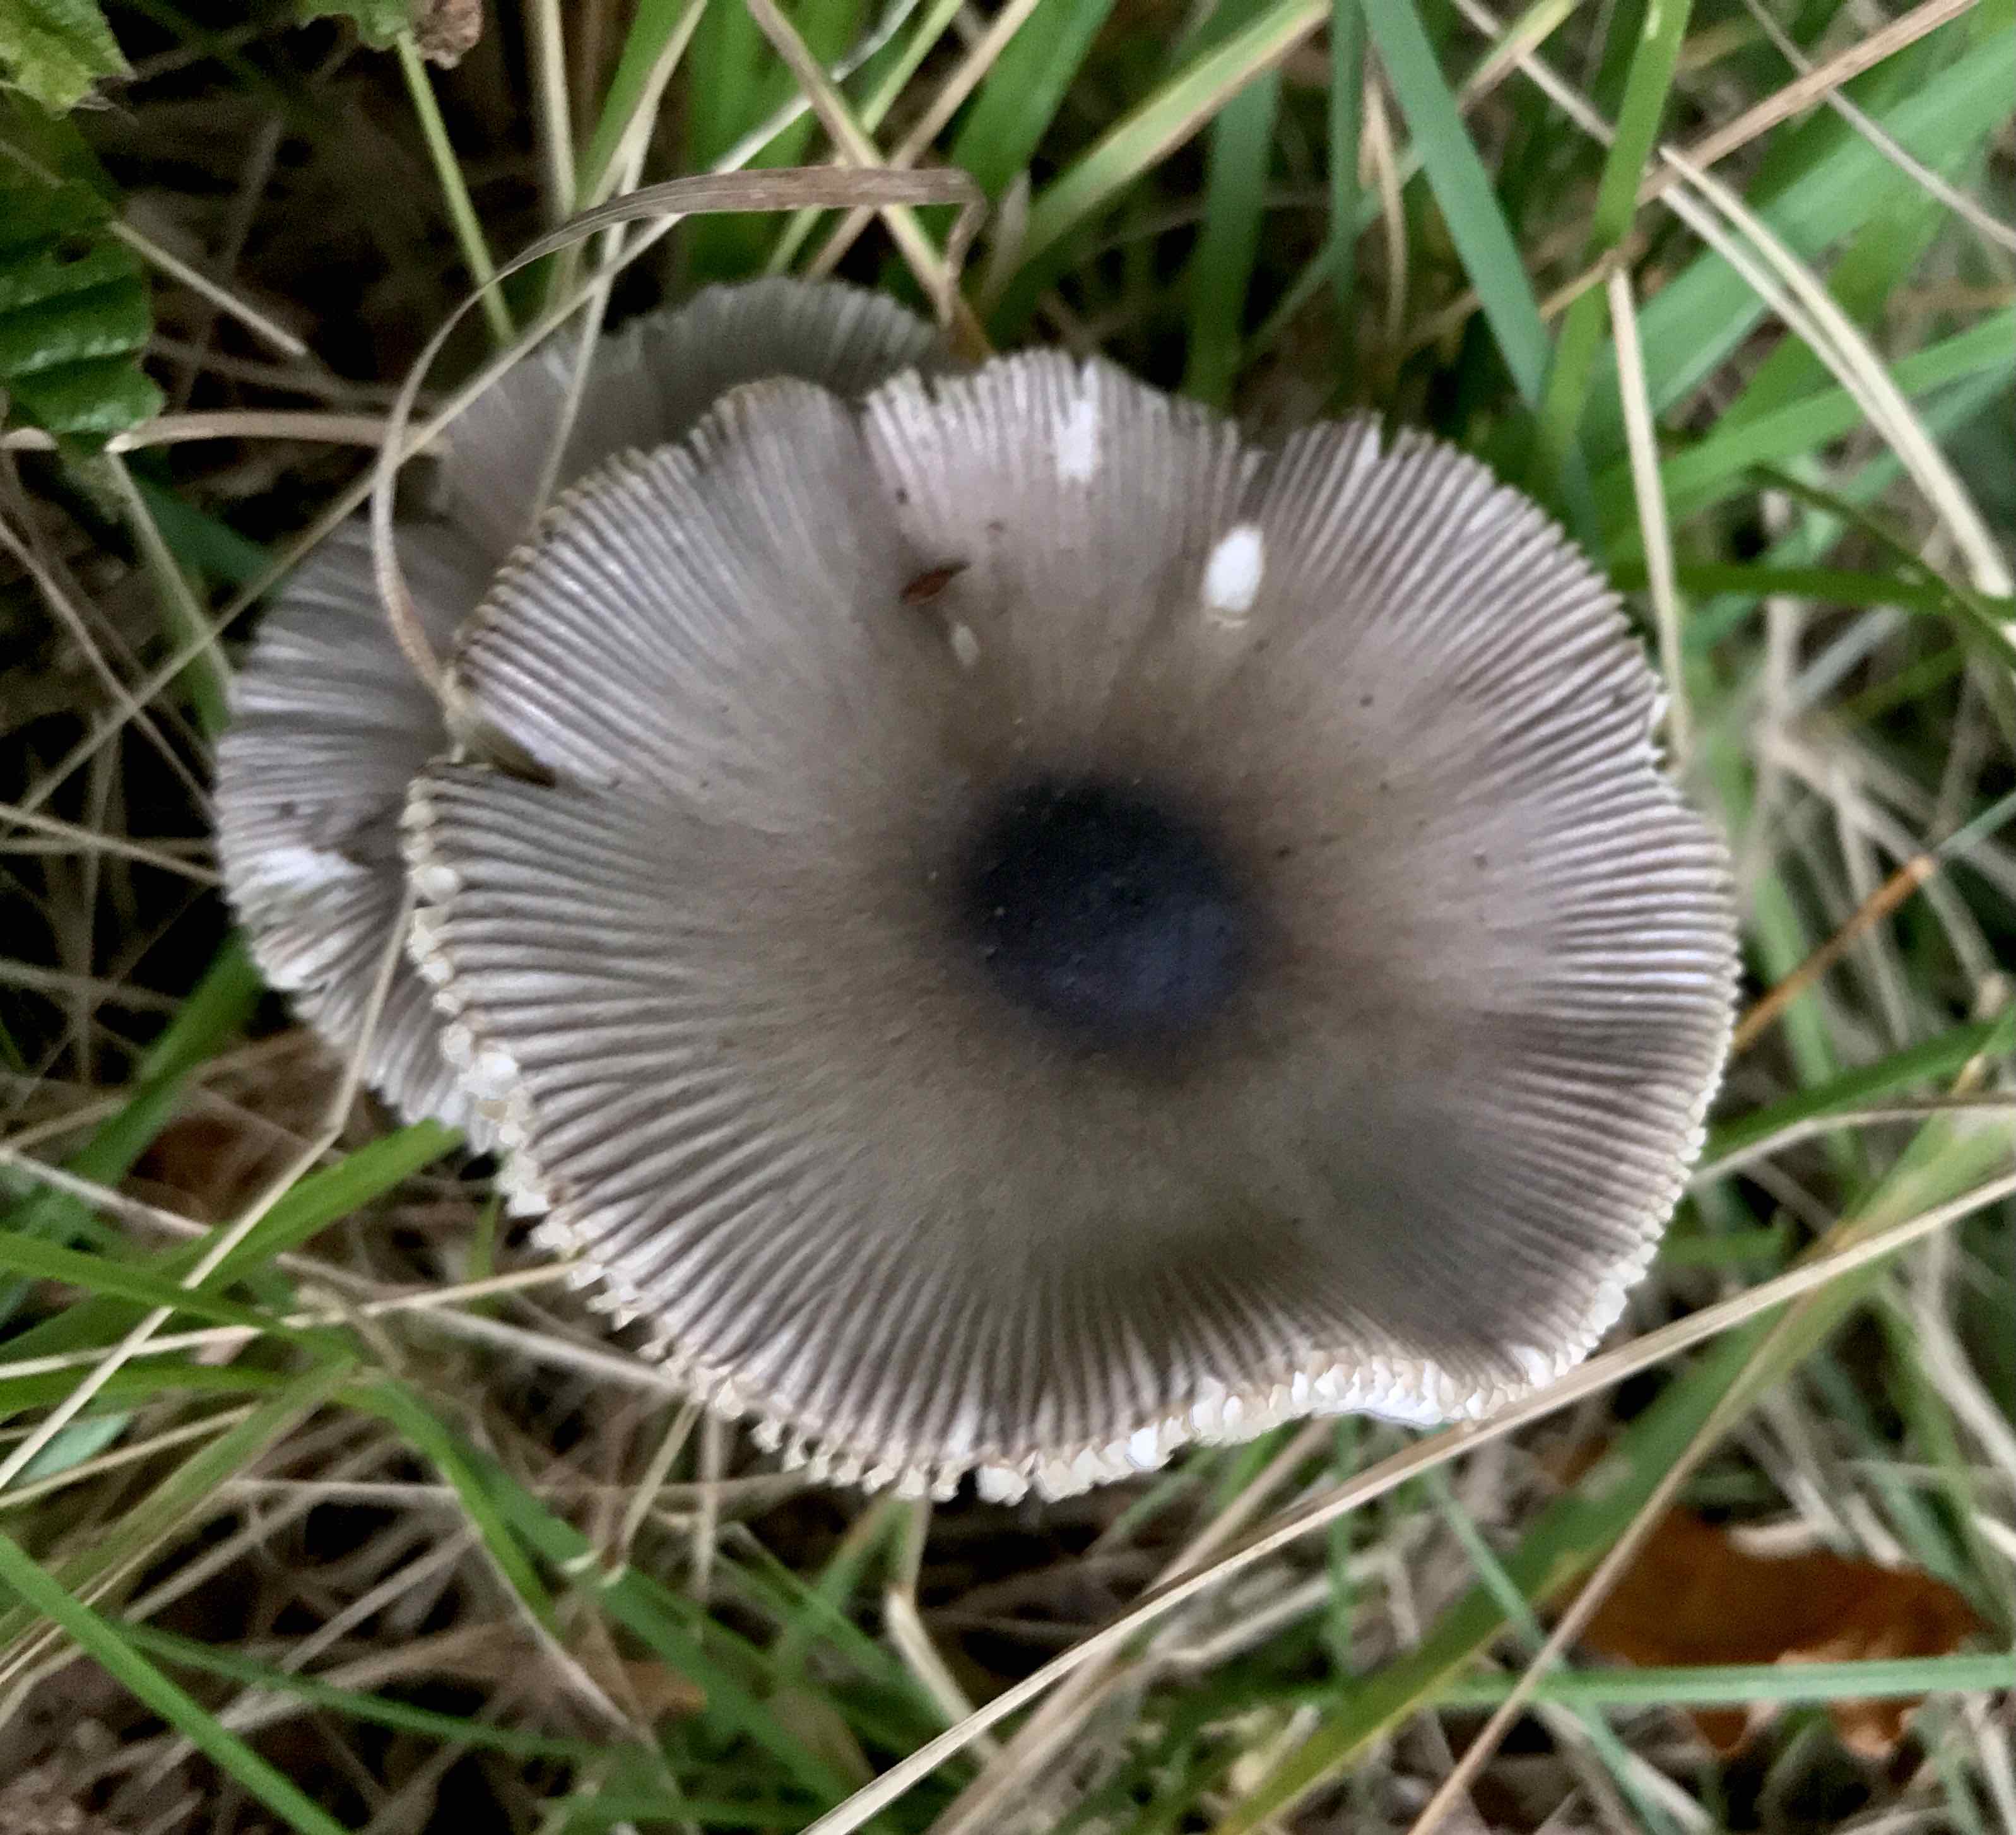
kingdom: Fungi
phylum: Basidiomycota
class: Agaricomycetes
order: Agaricales
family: Amanitaceae
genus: Amanita
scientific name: Amanita vaginata
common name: grå kam-fluesvamp
